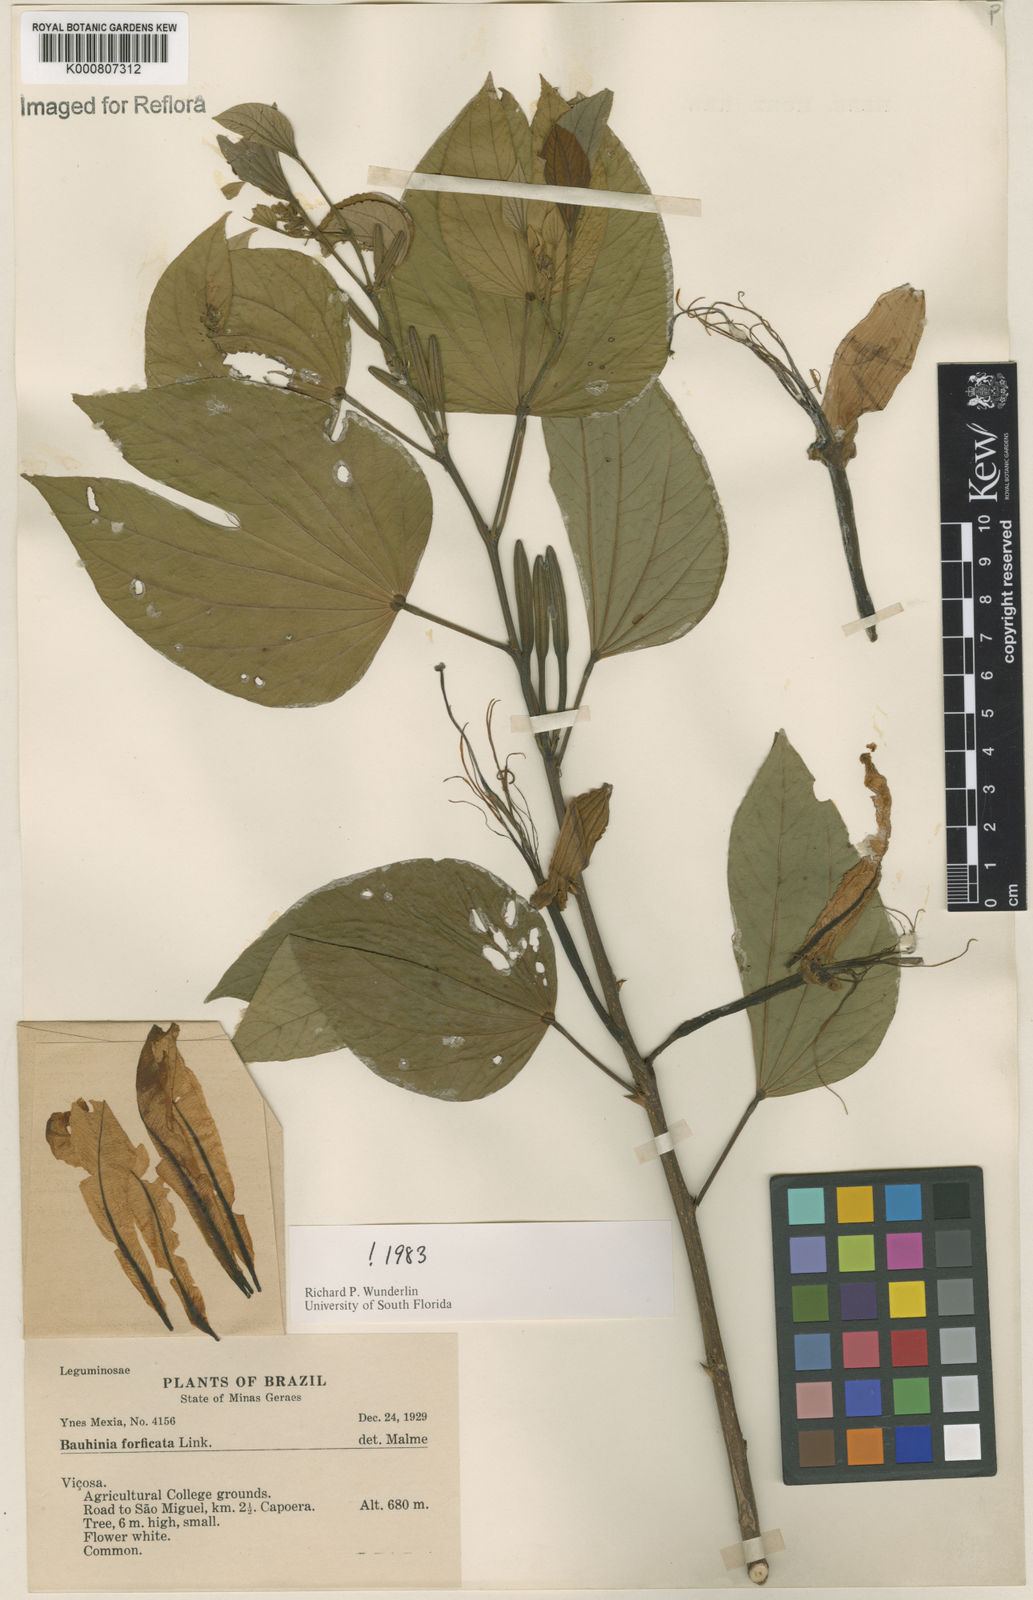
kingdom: Plantae
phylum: Tracheophyta
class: Magnoliopsida
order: Fabales
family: Fabaceae
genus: Bauhinia
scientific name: Bauhinia forficata
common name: Orchid tree
